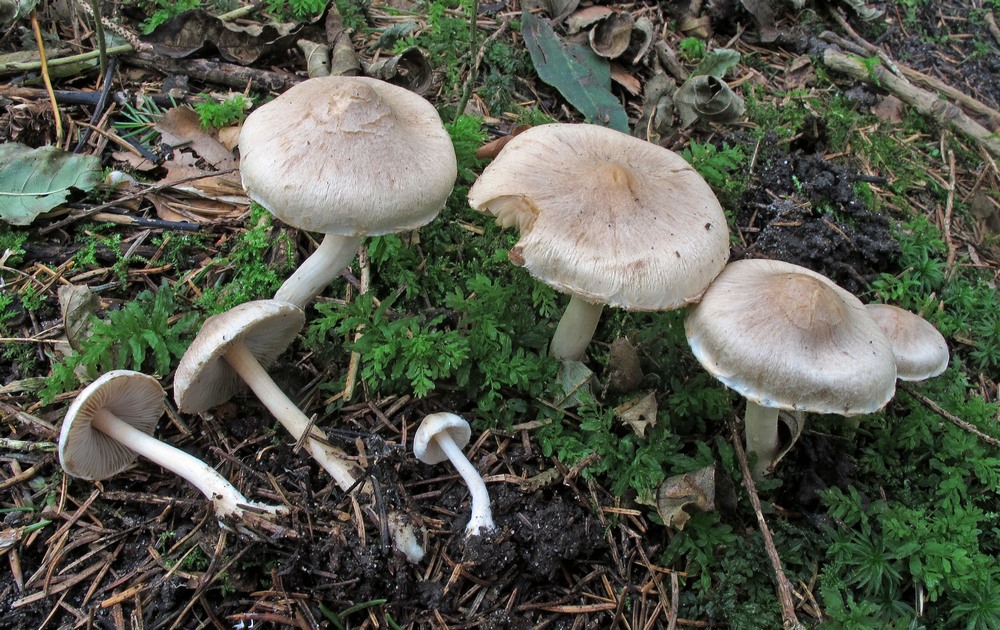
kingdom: Fungi
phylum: Basidiomycota
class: Agaricomycetes
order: Agaricales
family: Inocybaceae
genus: Inocybe
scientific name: Inocybe sindonia
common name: bleg trævlhat
